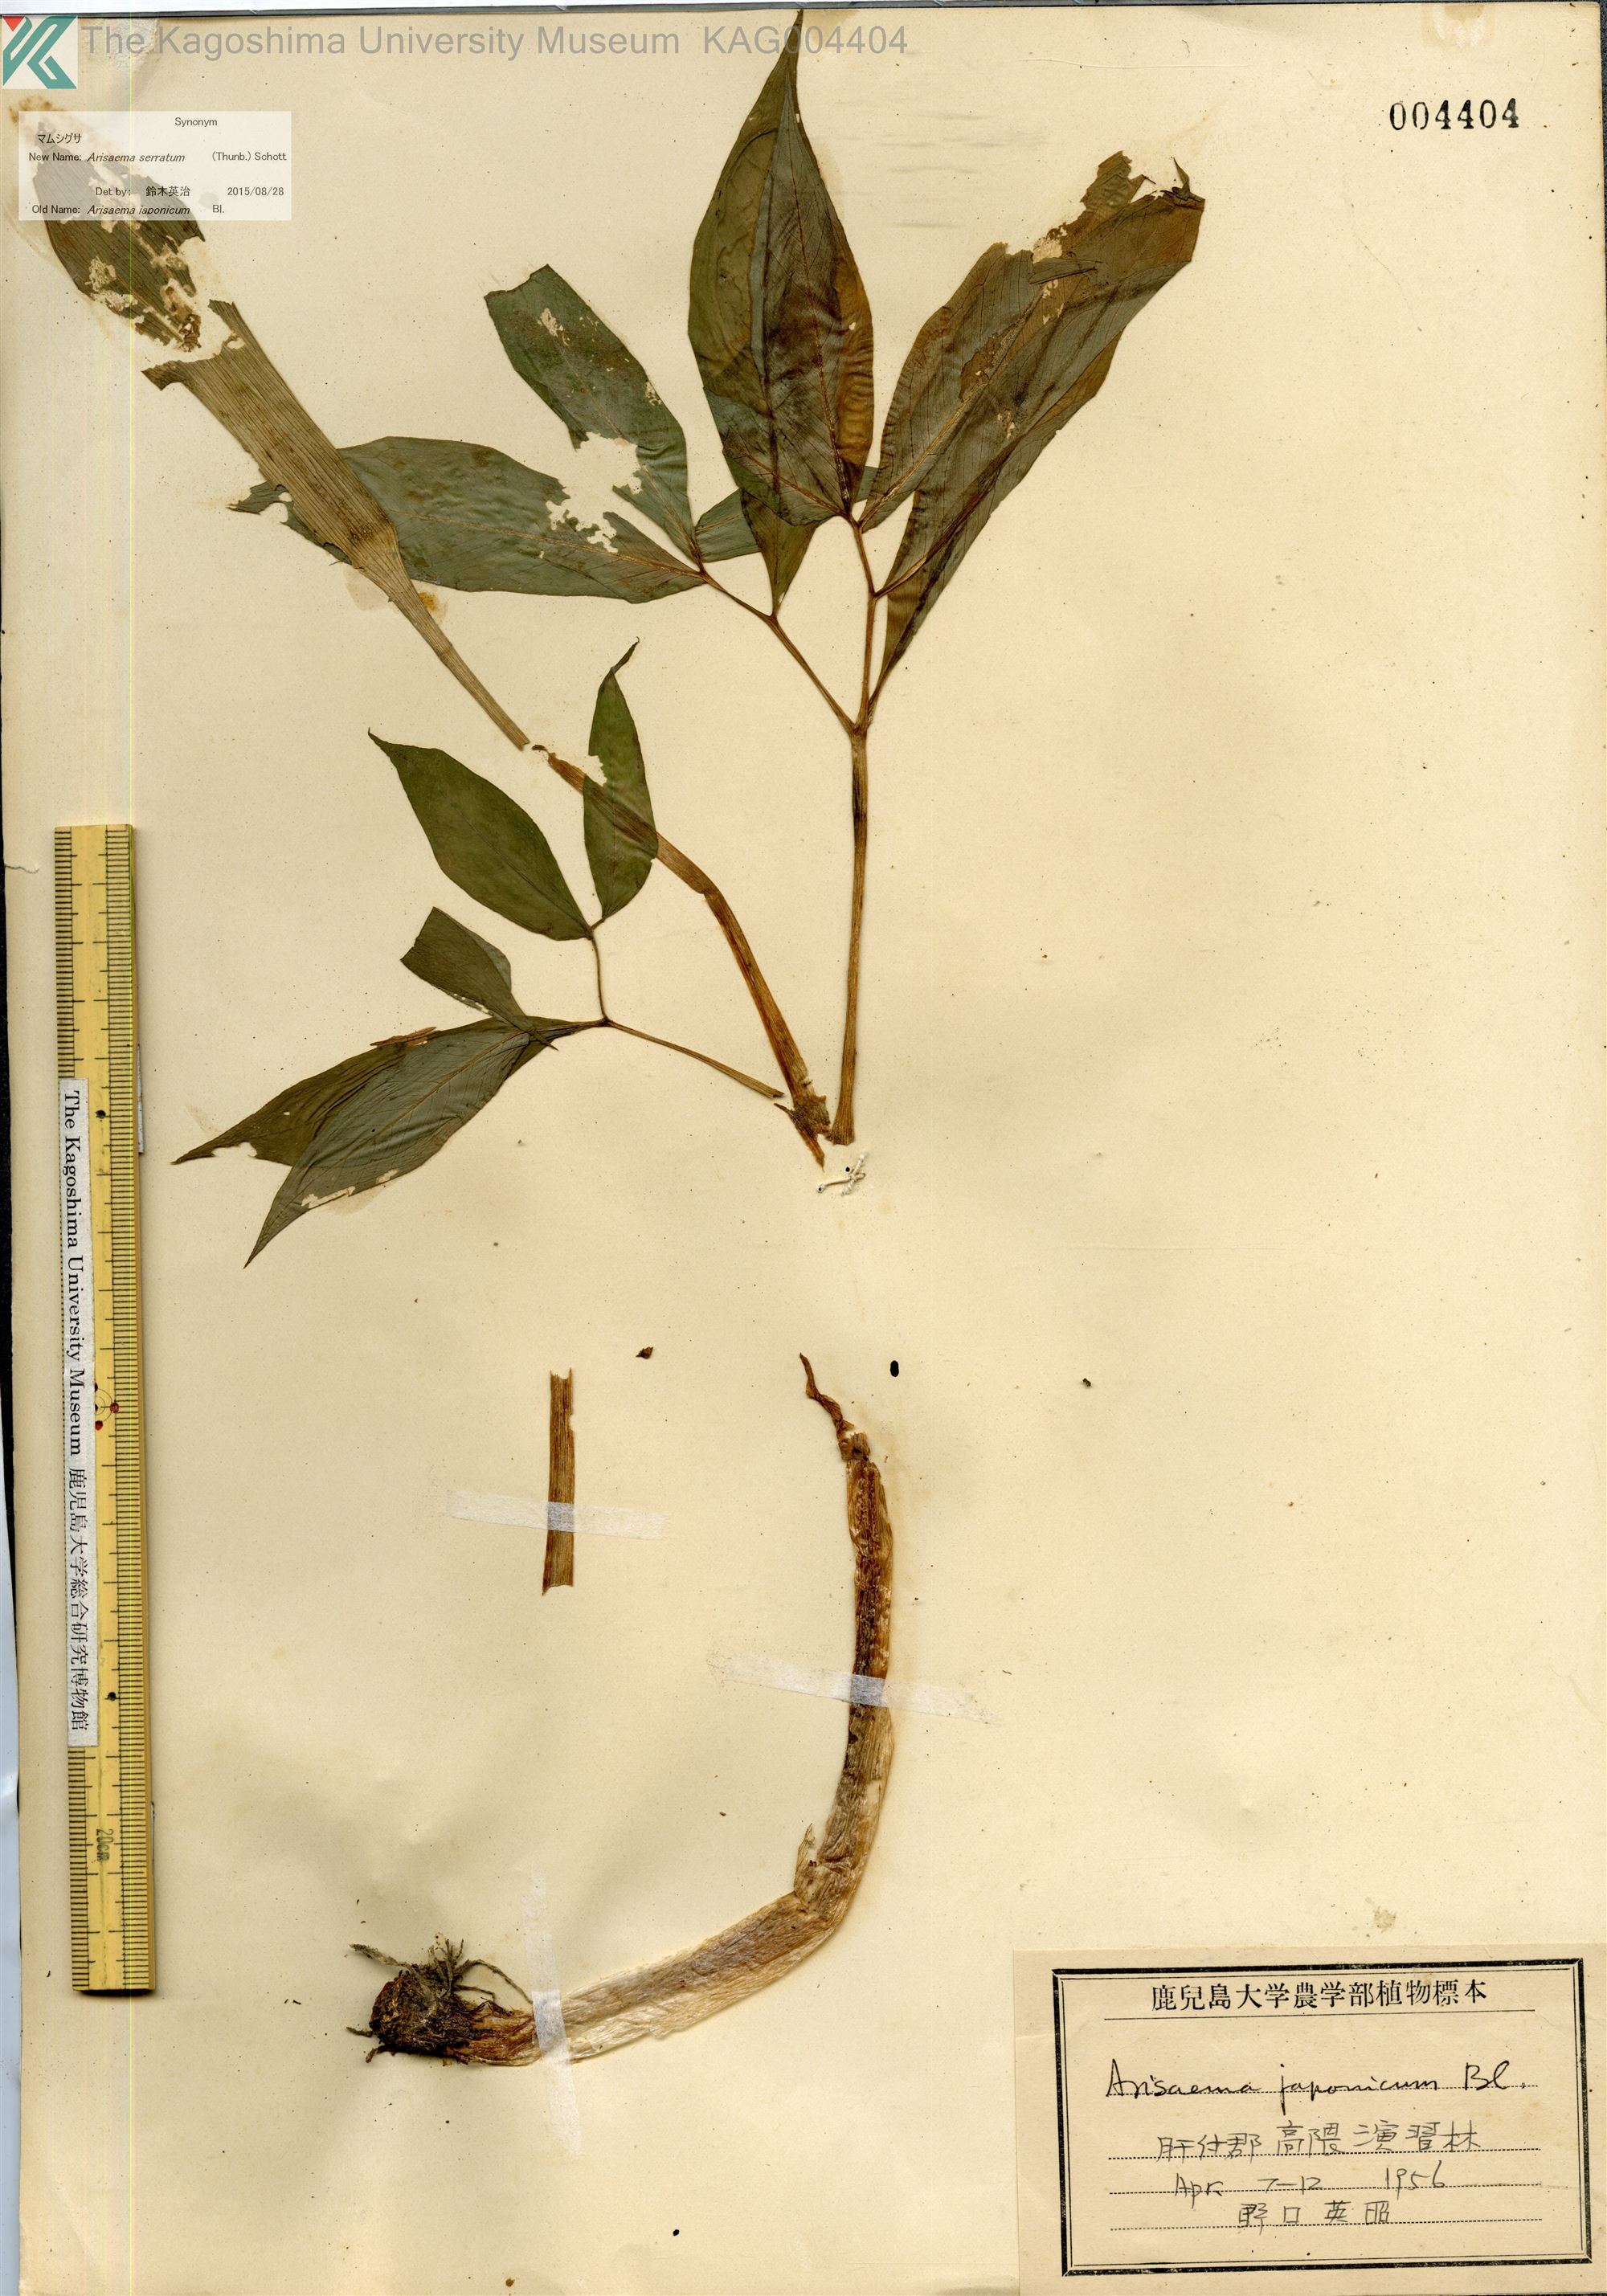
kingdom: Plantae
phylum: Tracheophyta
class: Liliopsida
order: Alismatales
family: Araceae
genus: Arisaema
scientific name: Arisaema serratum
